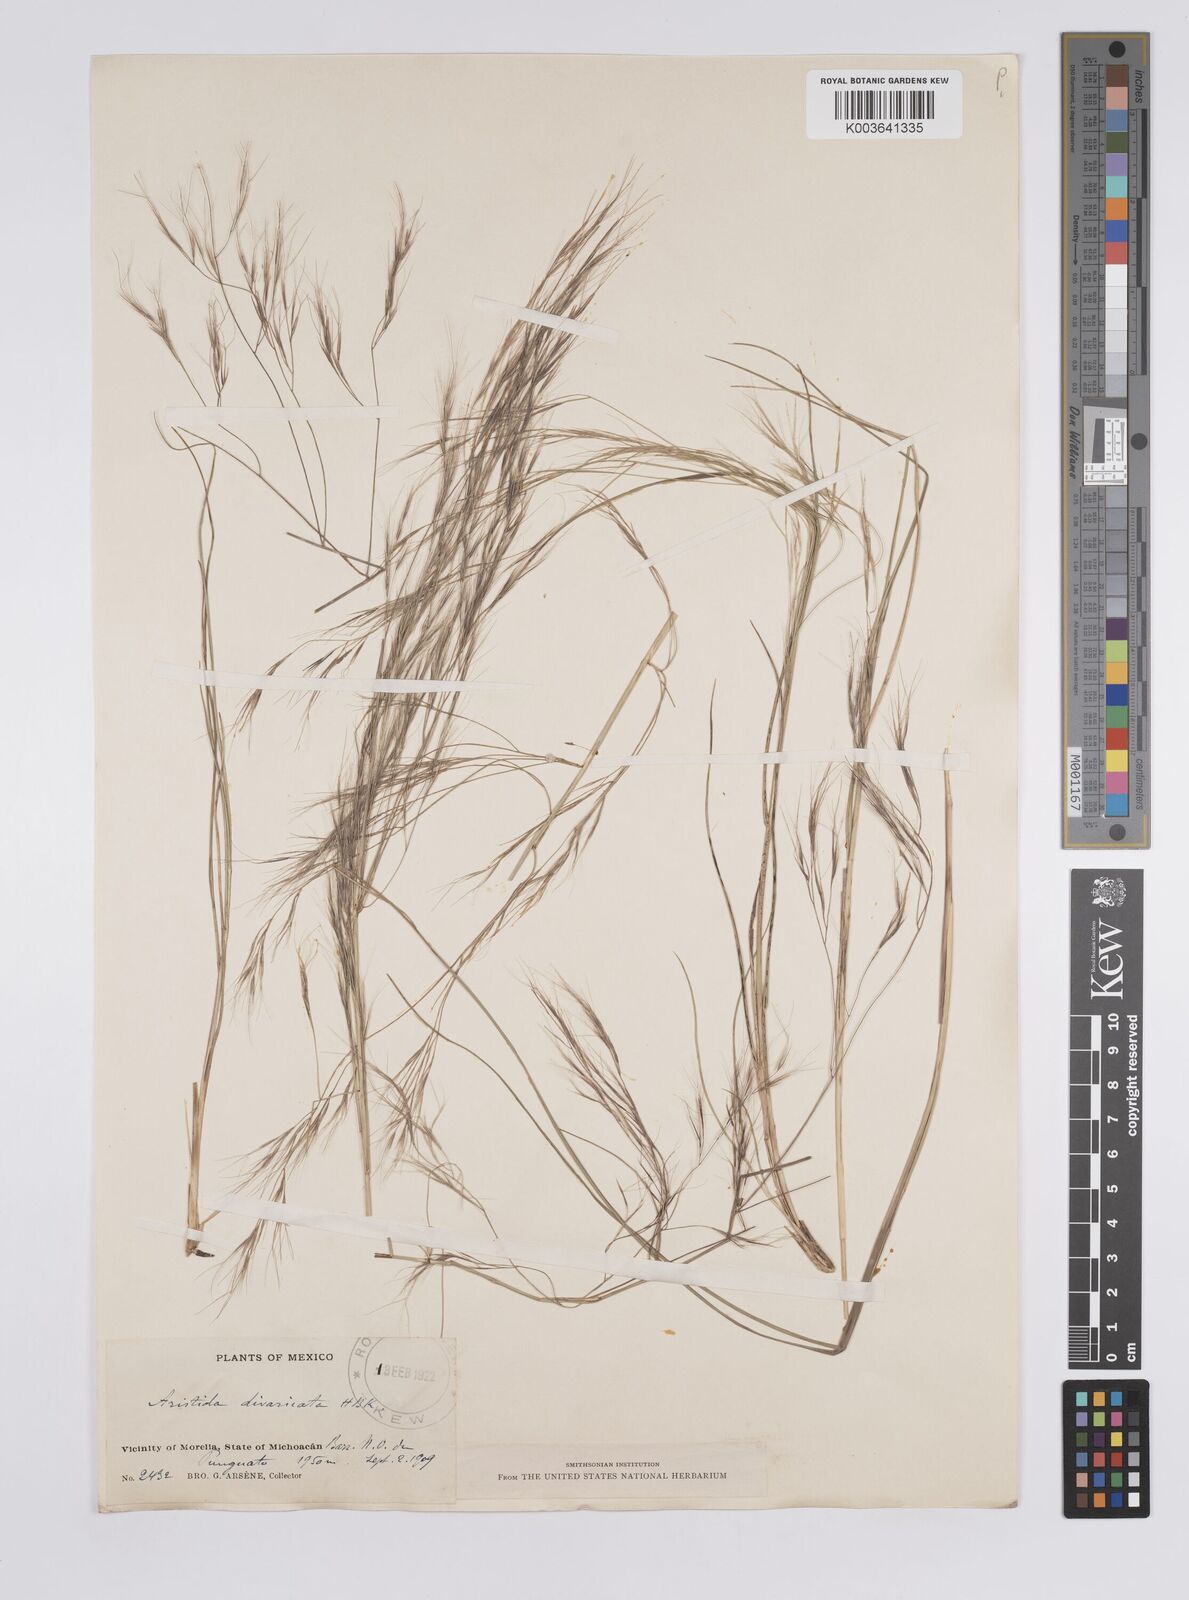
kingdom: Plantae
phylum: Tracheophyta
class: Liliopsida
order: Poales
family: Poaceae
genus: Aristida
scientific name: Aristida divaricata
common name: Poverty grass
